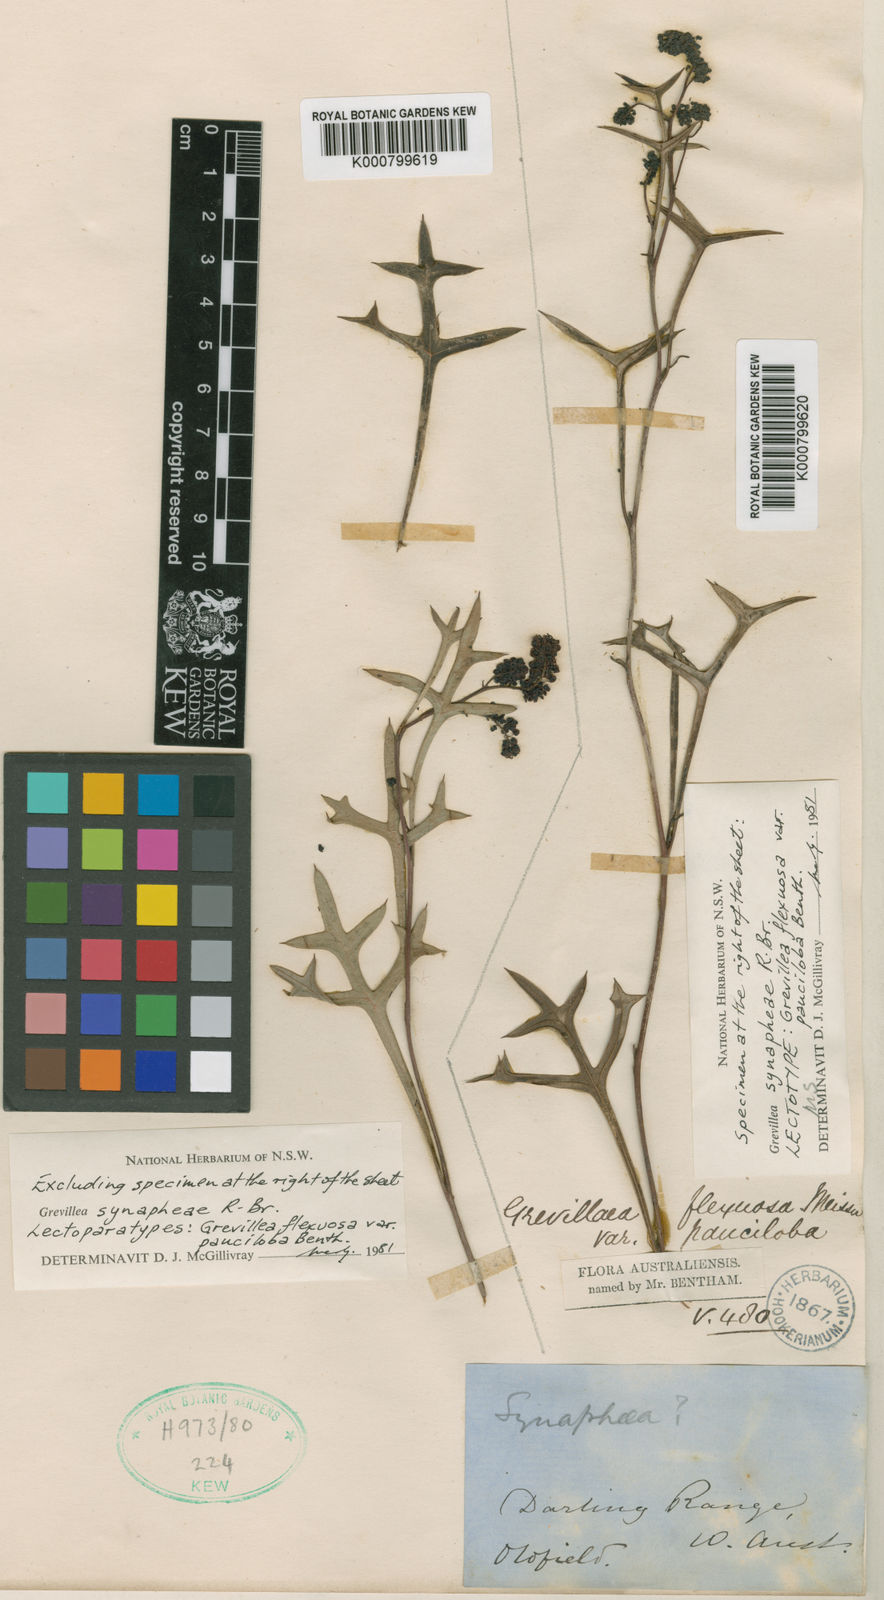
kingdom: Plantae
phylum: Tracheophyta
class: Magnoliopsida
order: Proteales
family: Proteaceae
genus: Grevillea
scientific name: Grevillea synaphea
